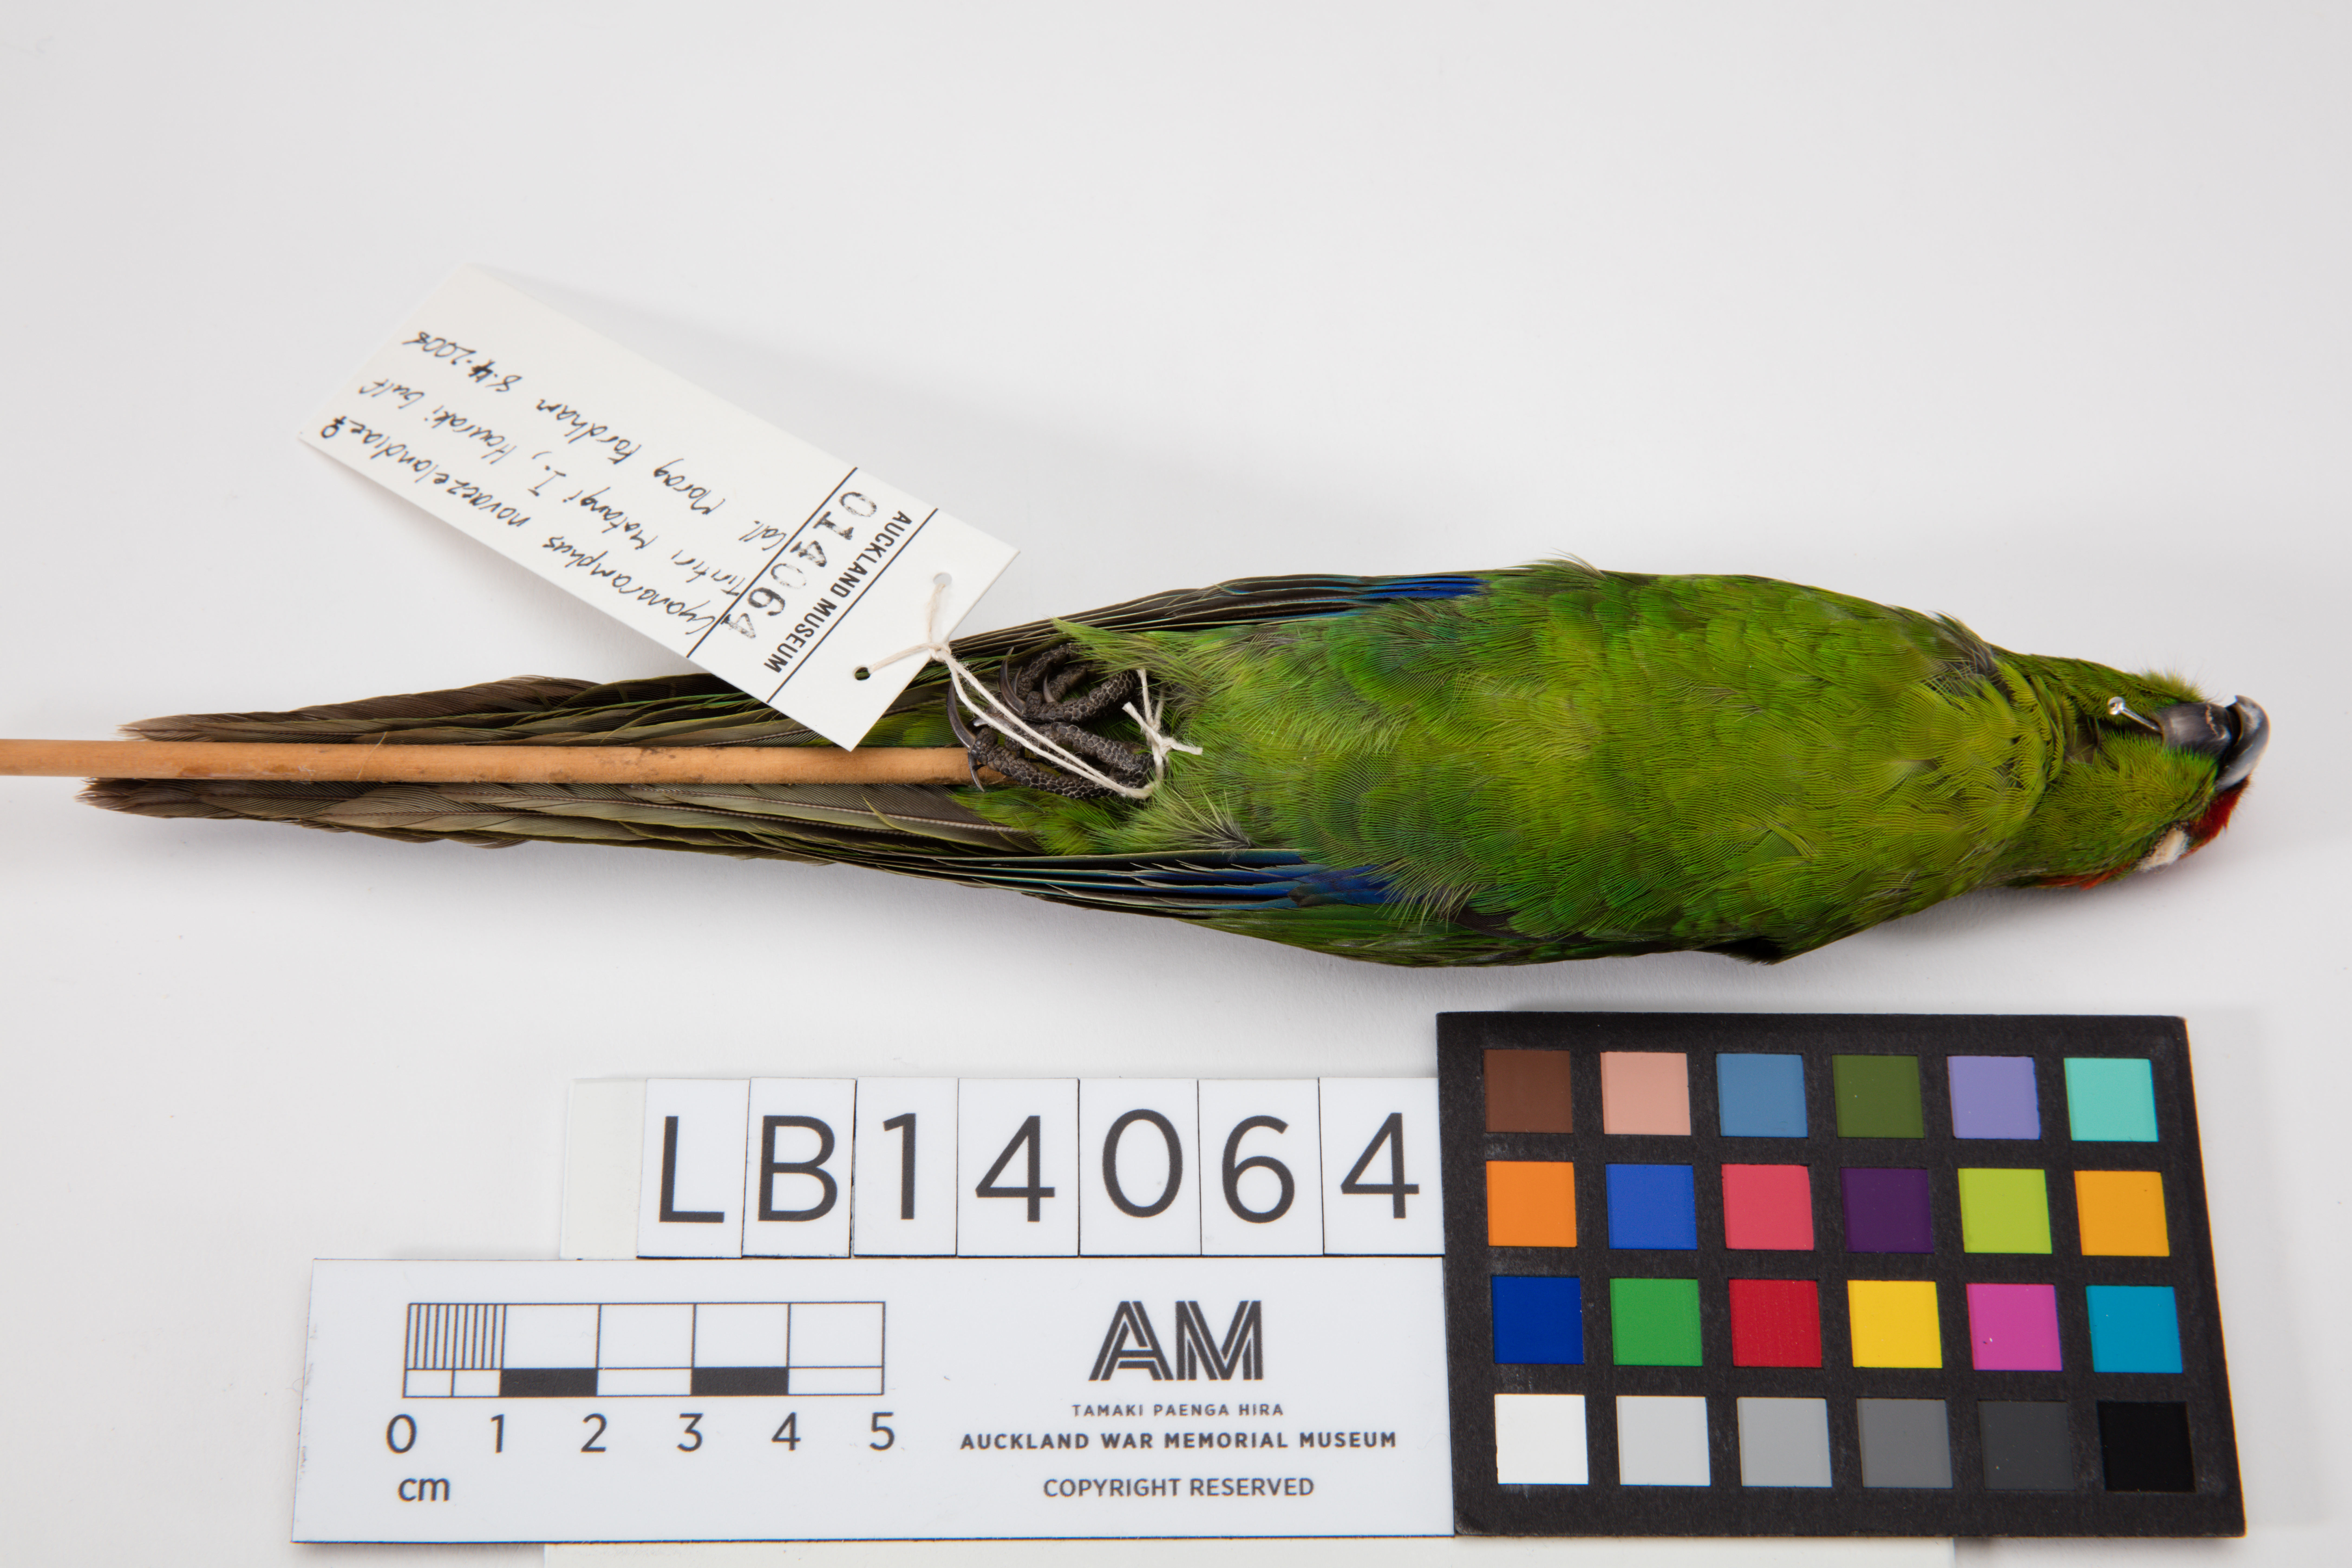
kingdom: Animalia
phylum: Chordata
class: Aves
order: Psittaciformes
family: Psittacidae
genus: Cyanoramphus
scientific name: Cyanoramphus novaezelandiae
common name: Red-fronted parakeet
